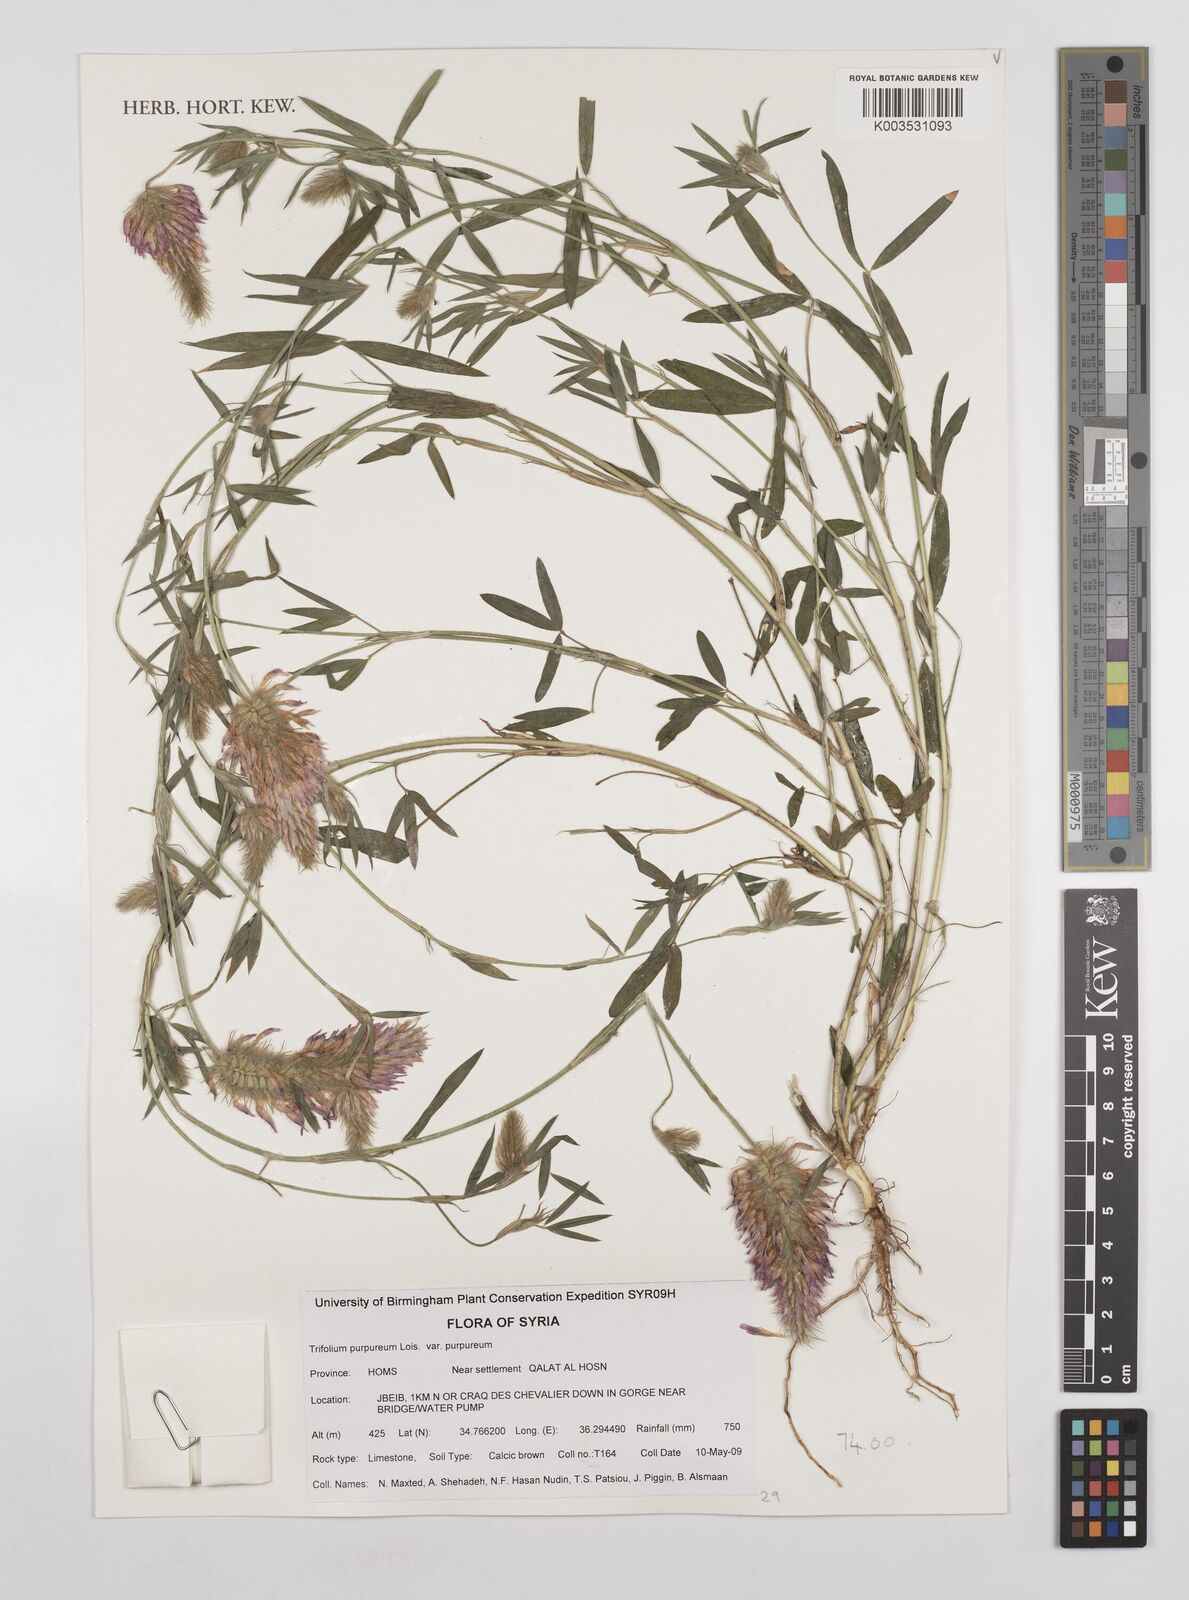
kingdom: Plantae
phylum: Tracheophyta
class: Magnoliopsida
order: Fabales
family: Fabaceae
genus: Trifolium
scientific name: Trifolium purpureum
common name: Purple clover
